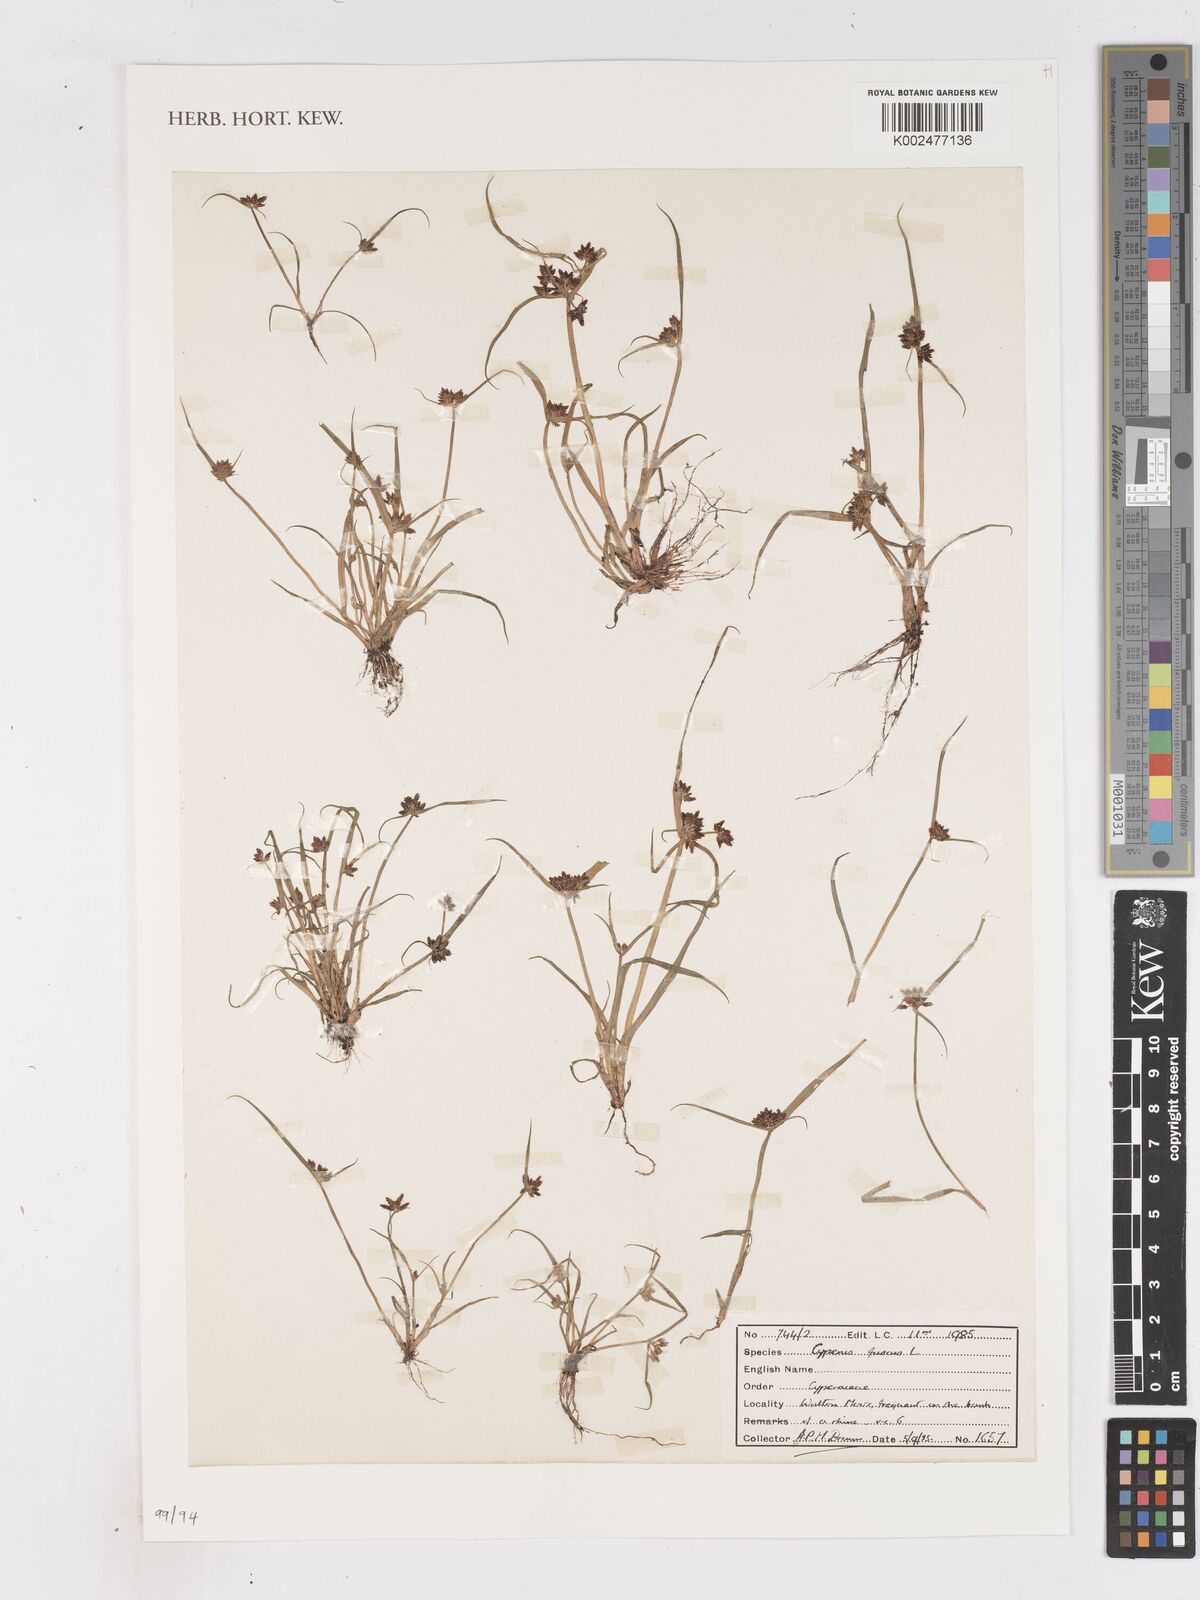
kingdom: Plantae
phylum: Tracheophyta
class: Liliopsida
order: Poales
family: Cyperaceae
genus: Cyperus
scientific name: Cyperus fuscus
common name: Brown galingale
